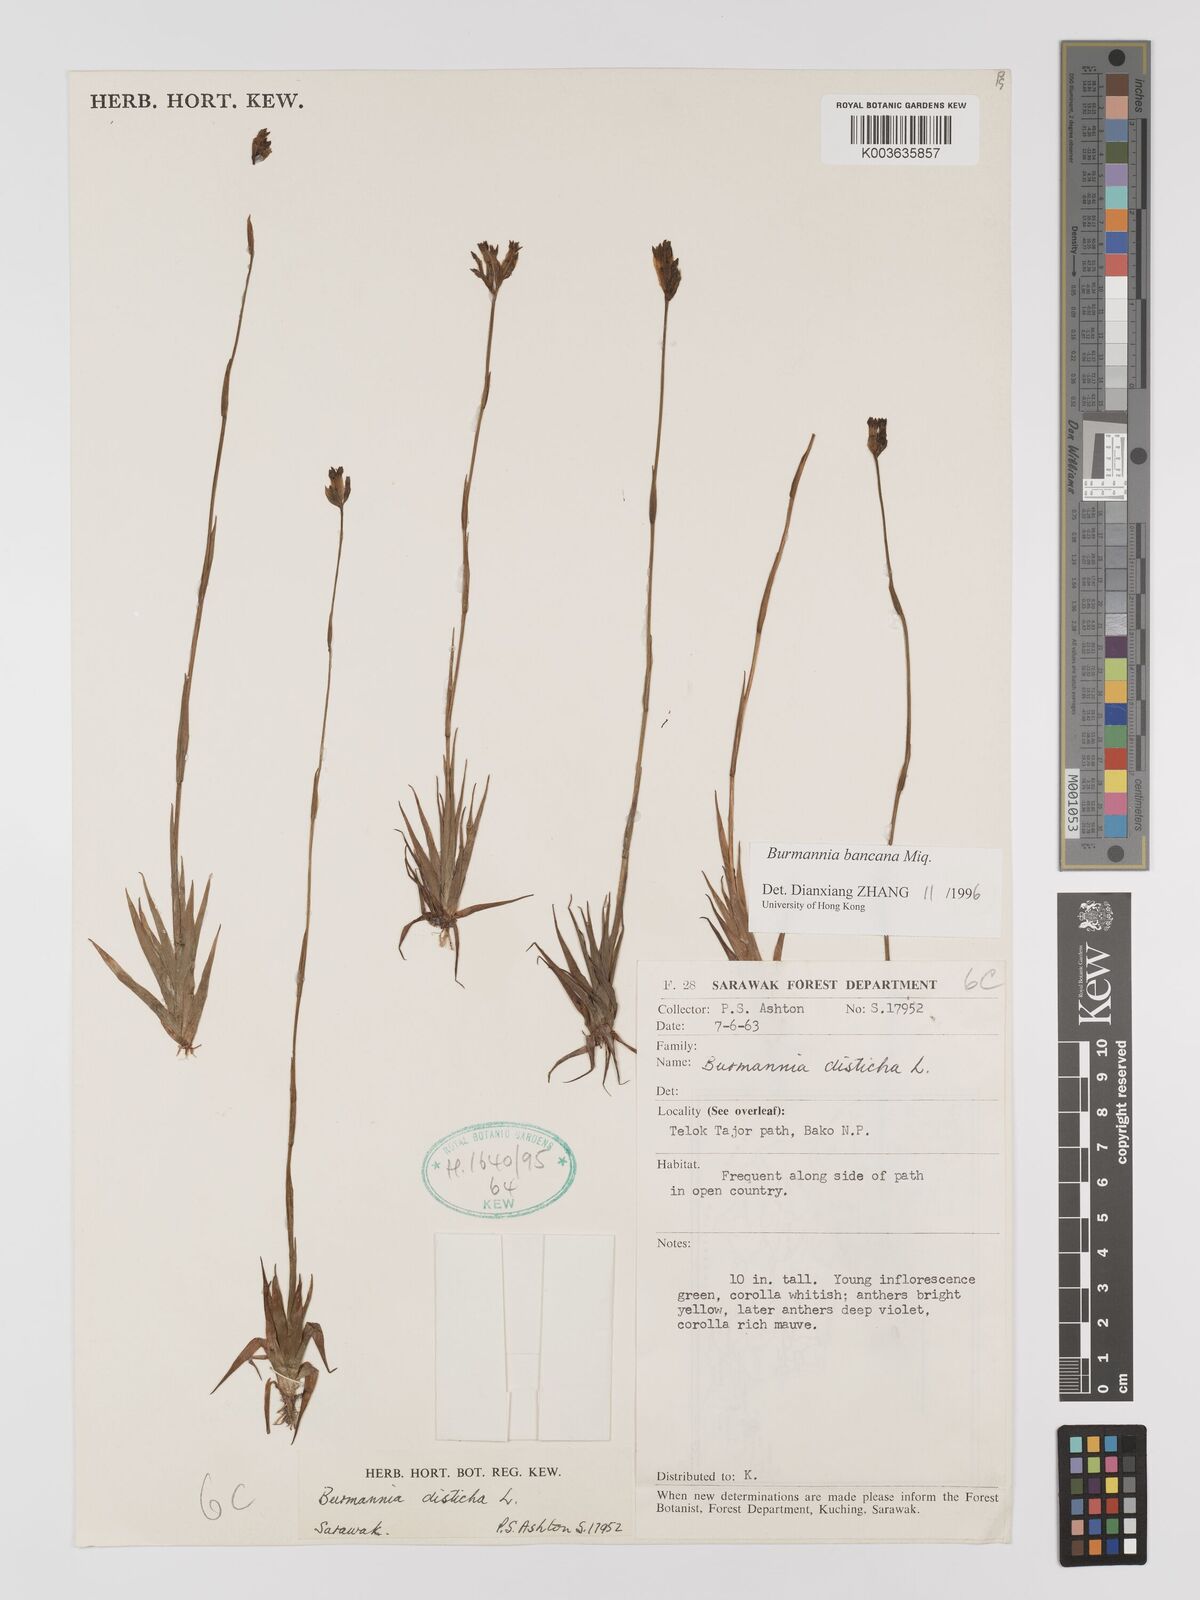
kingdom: Plantae
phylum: Tracheophyta
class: Liliopsida
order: Dioscoreales
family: Burmanniaceae
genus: Burmannia
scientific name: Burmannia disticha
